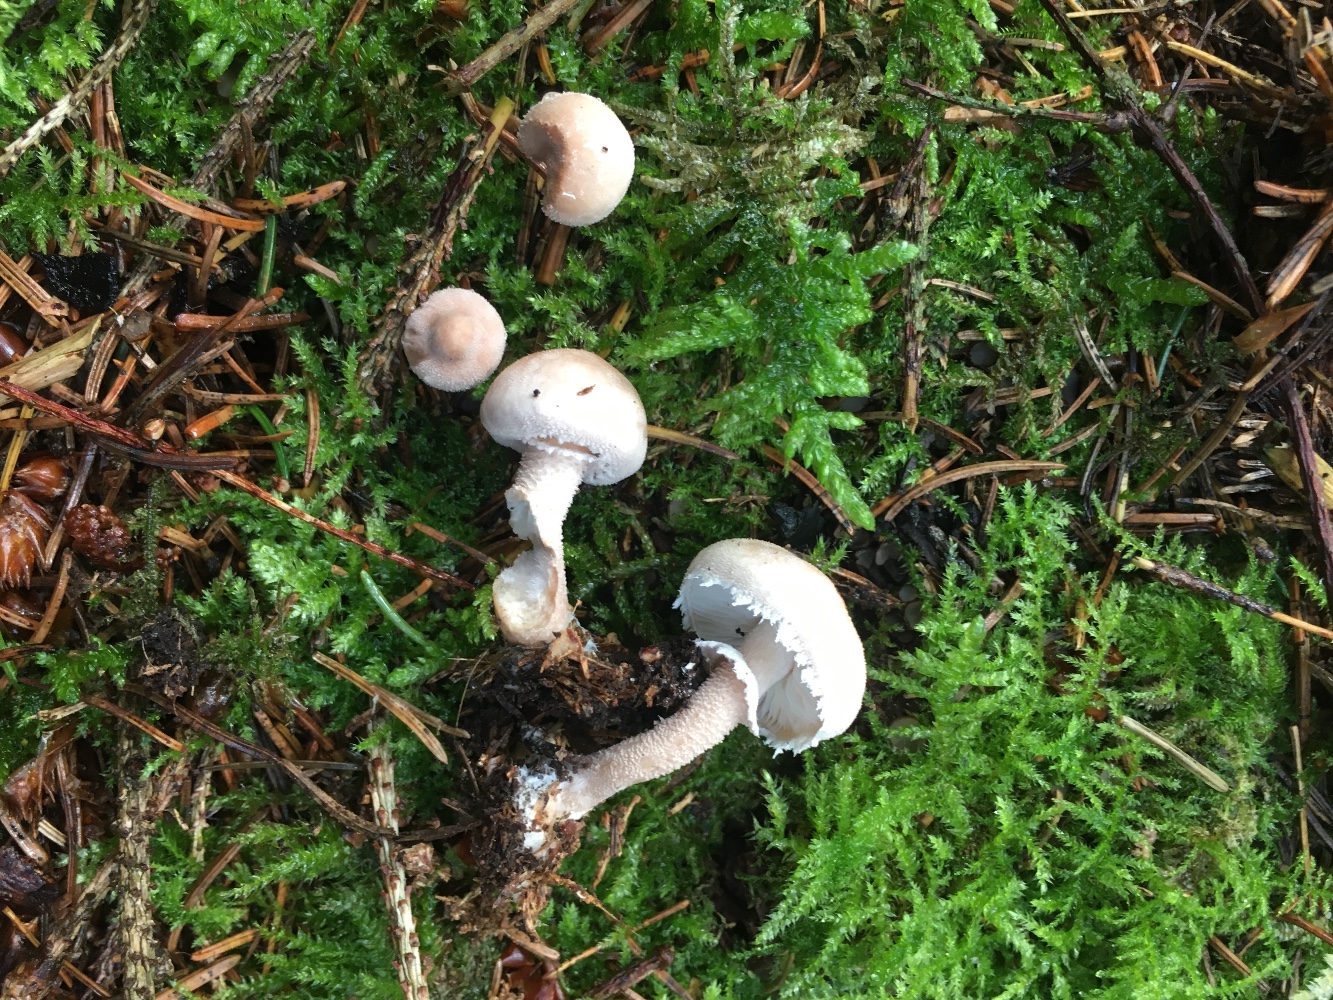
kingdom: Fungi
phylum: Basidiomycota
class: Agaricomycetes
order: Agaricales
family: Tricholomataceae
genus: Cystoderma
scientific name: Cystoderma carcharias
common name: rødgrå grynhat
